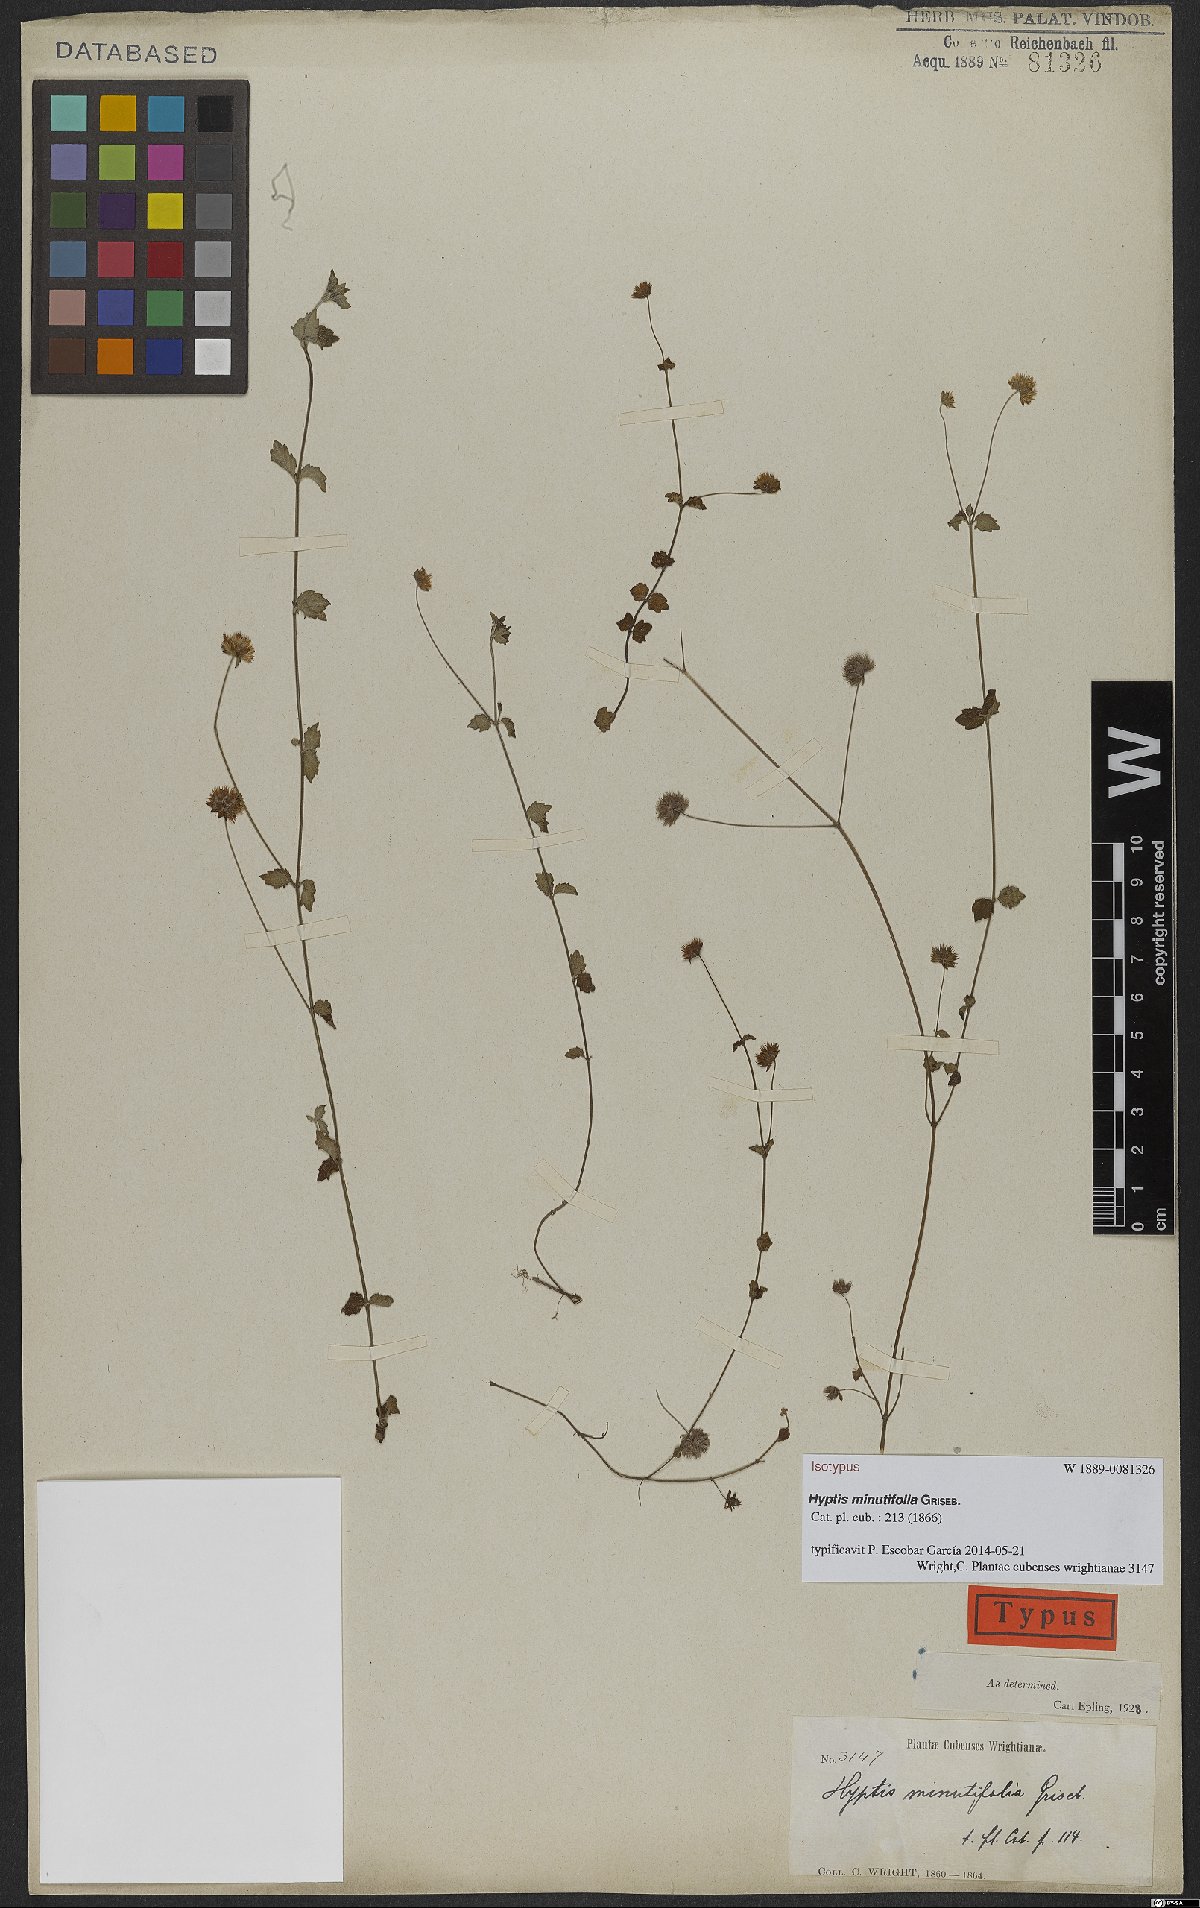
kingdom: Plantae
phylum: Tracheophyta
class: Magnoliopsida
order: Lamiales
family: Lamiaceae
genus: Hyptis
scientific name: Hyptis minutifolia
